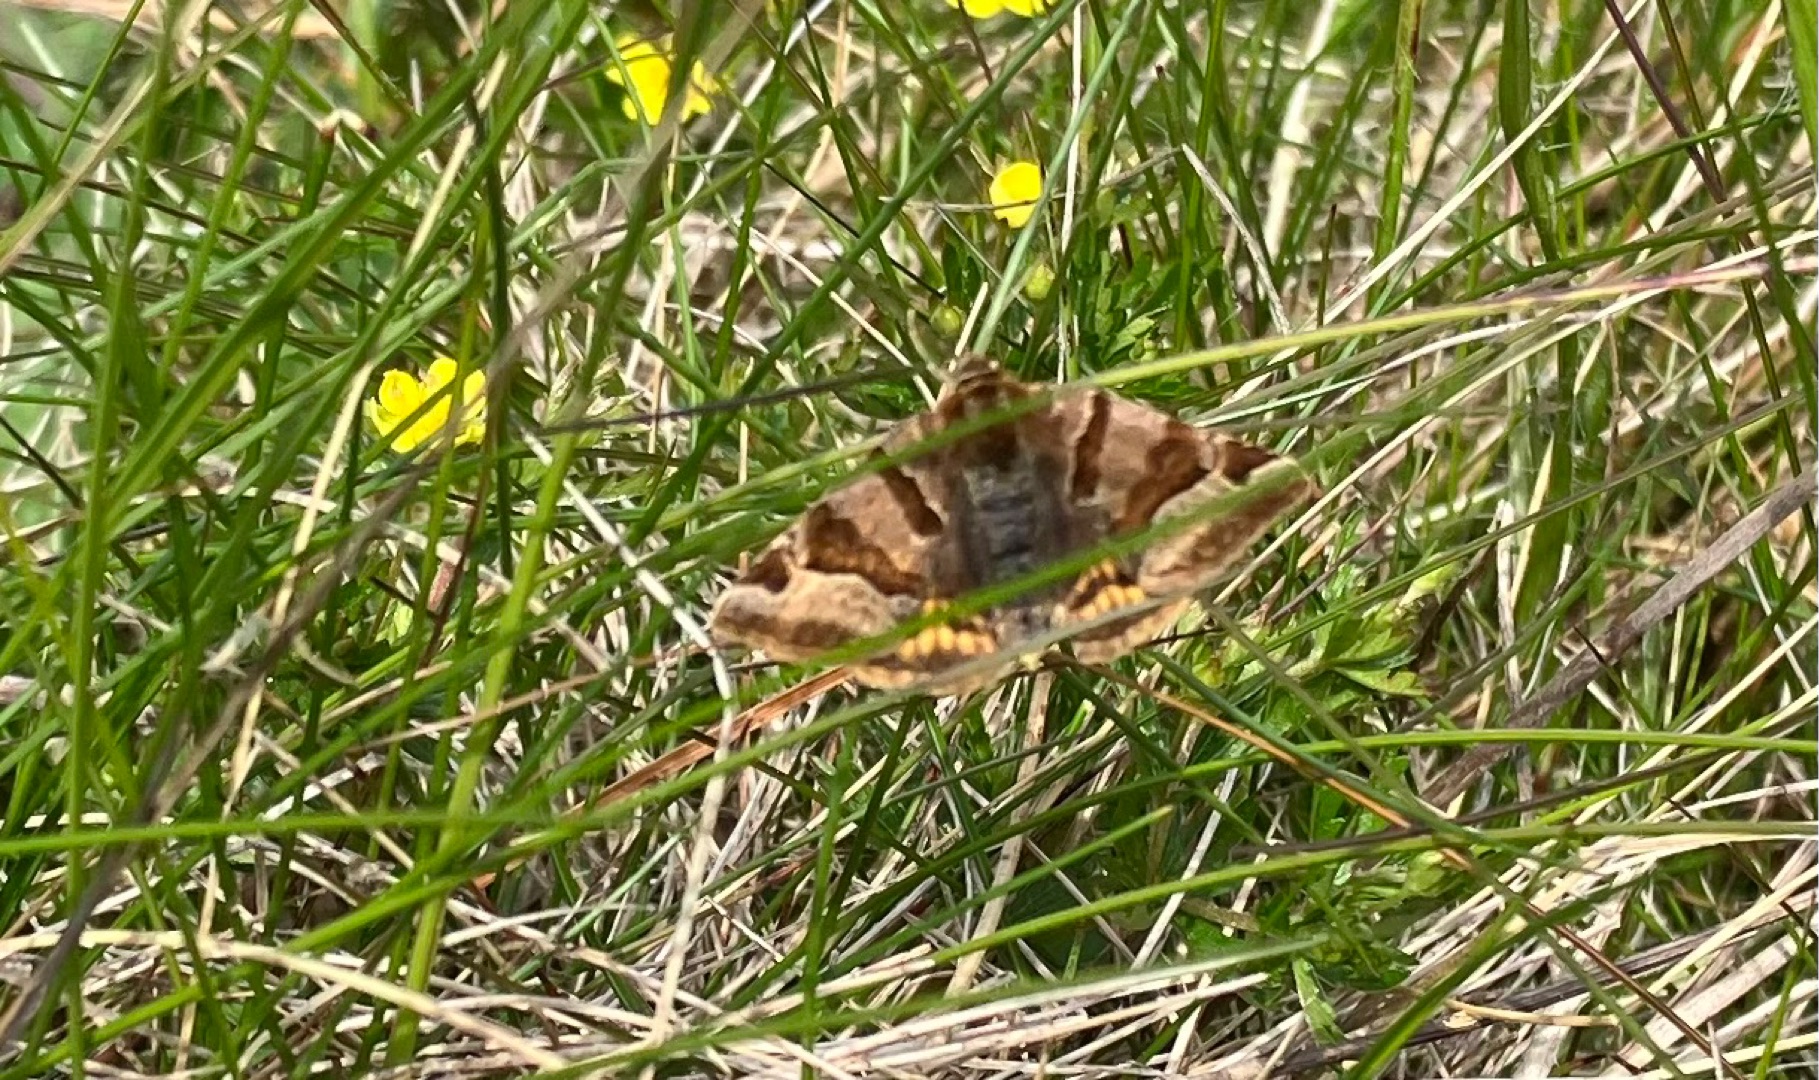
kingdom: Animalia
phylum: Arthropoda
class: Insecta
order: Lepidoptera
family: Erebidae
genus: Euclidia
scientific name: Euclidia glyphica
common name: Brun kløverugle
